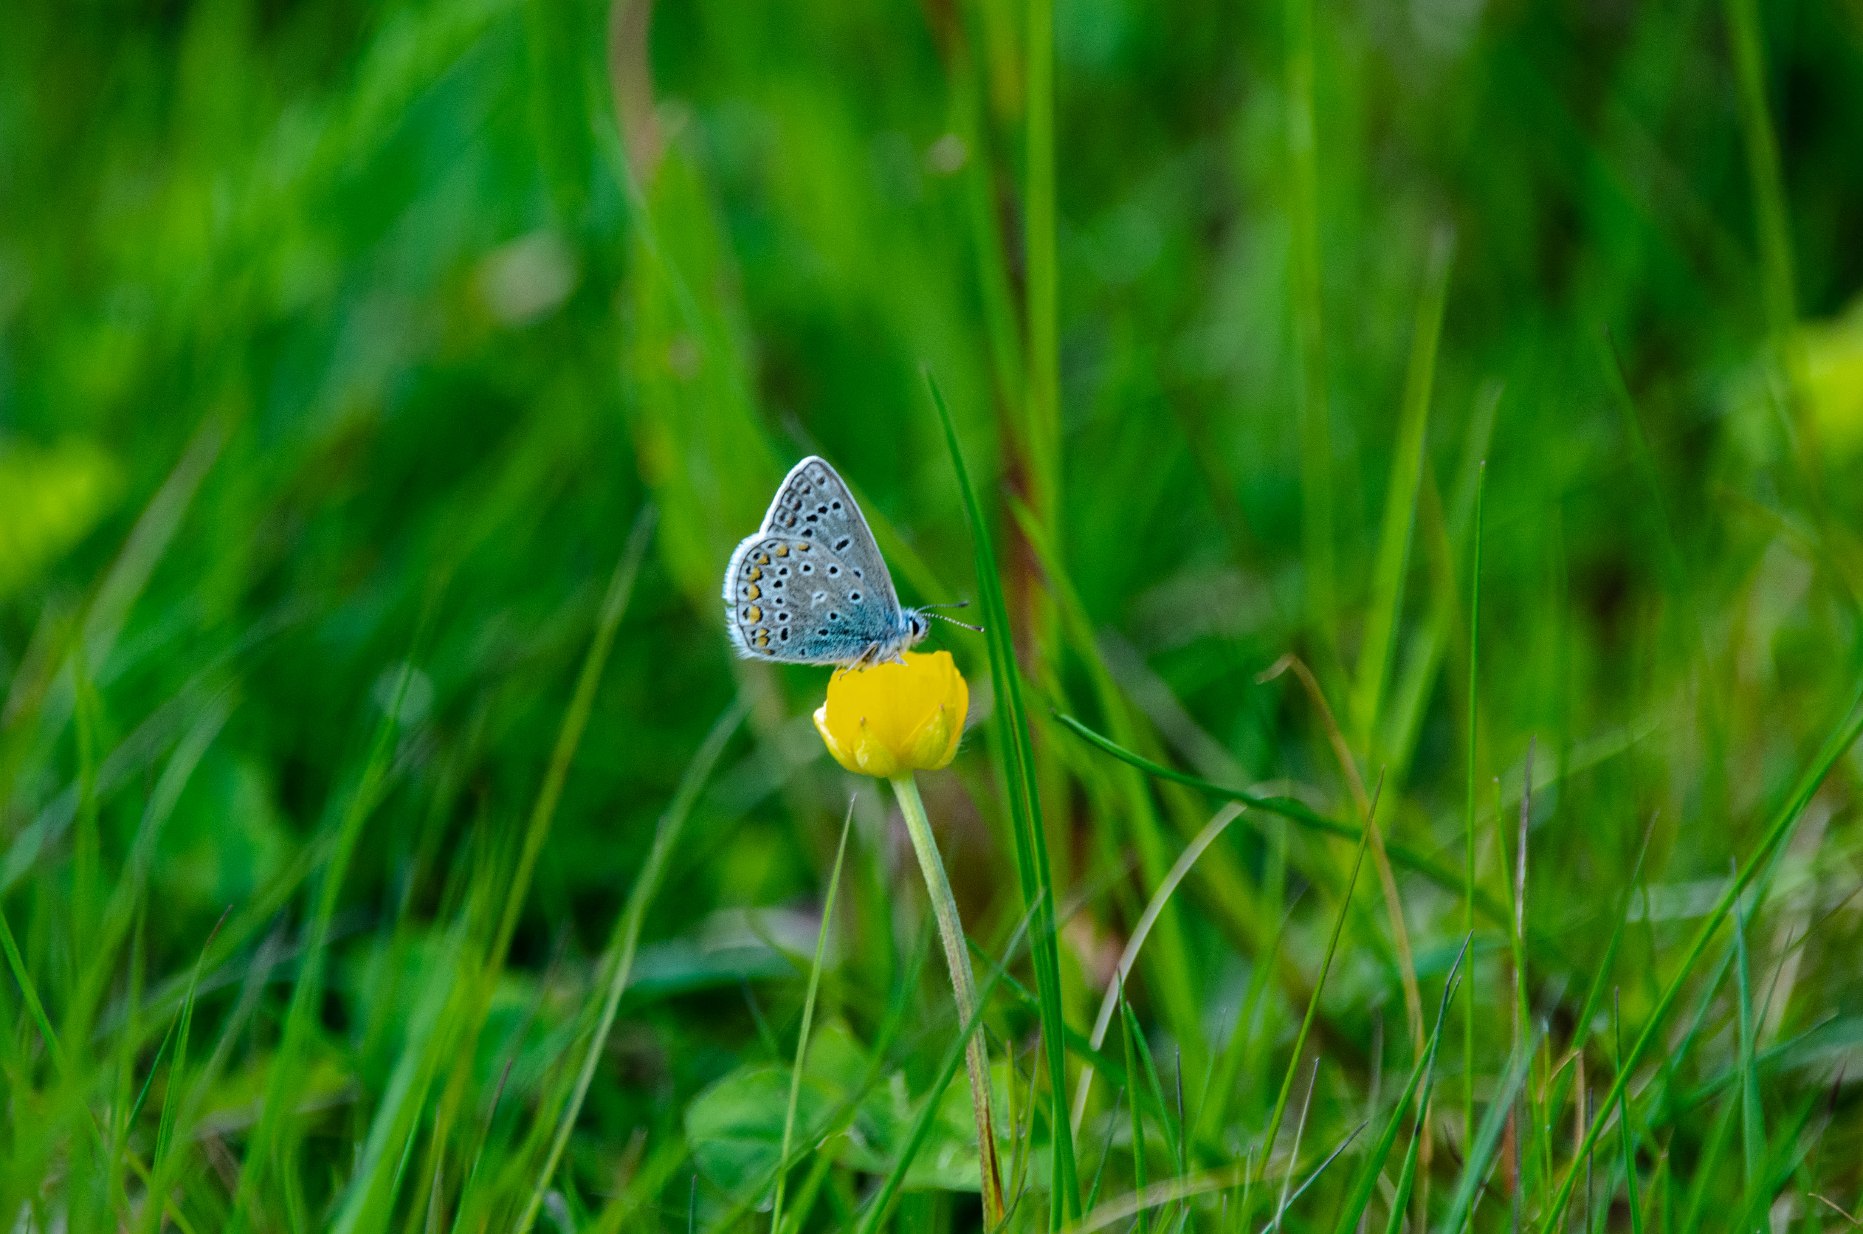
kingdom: Animalia
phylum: Arthropoda
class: Insecta
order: Lepidoptera
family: Lycaenidae
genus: Polyommatus
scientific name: Polyommatus icarus
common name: Almindelig blåfugl
